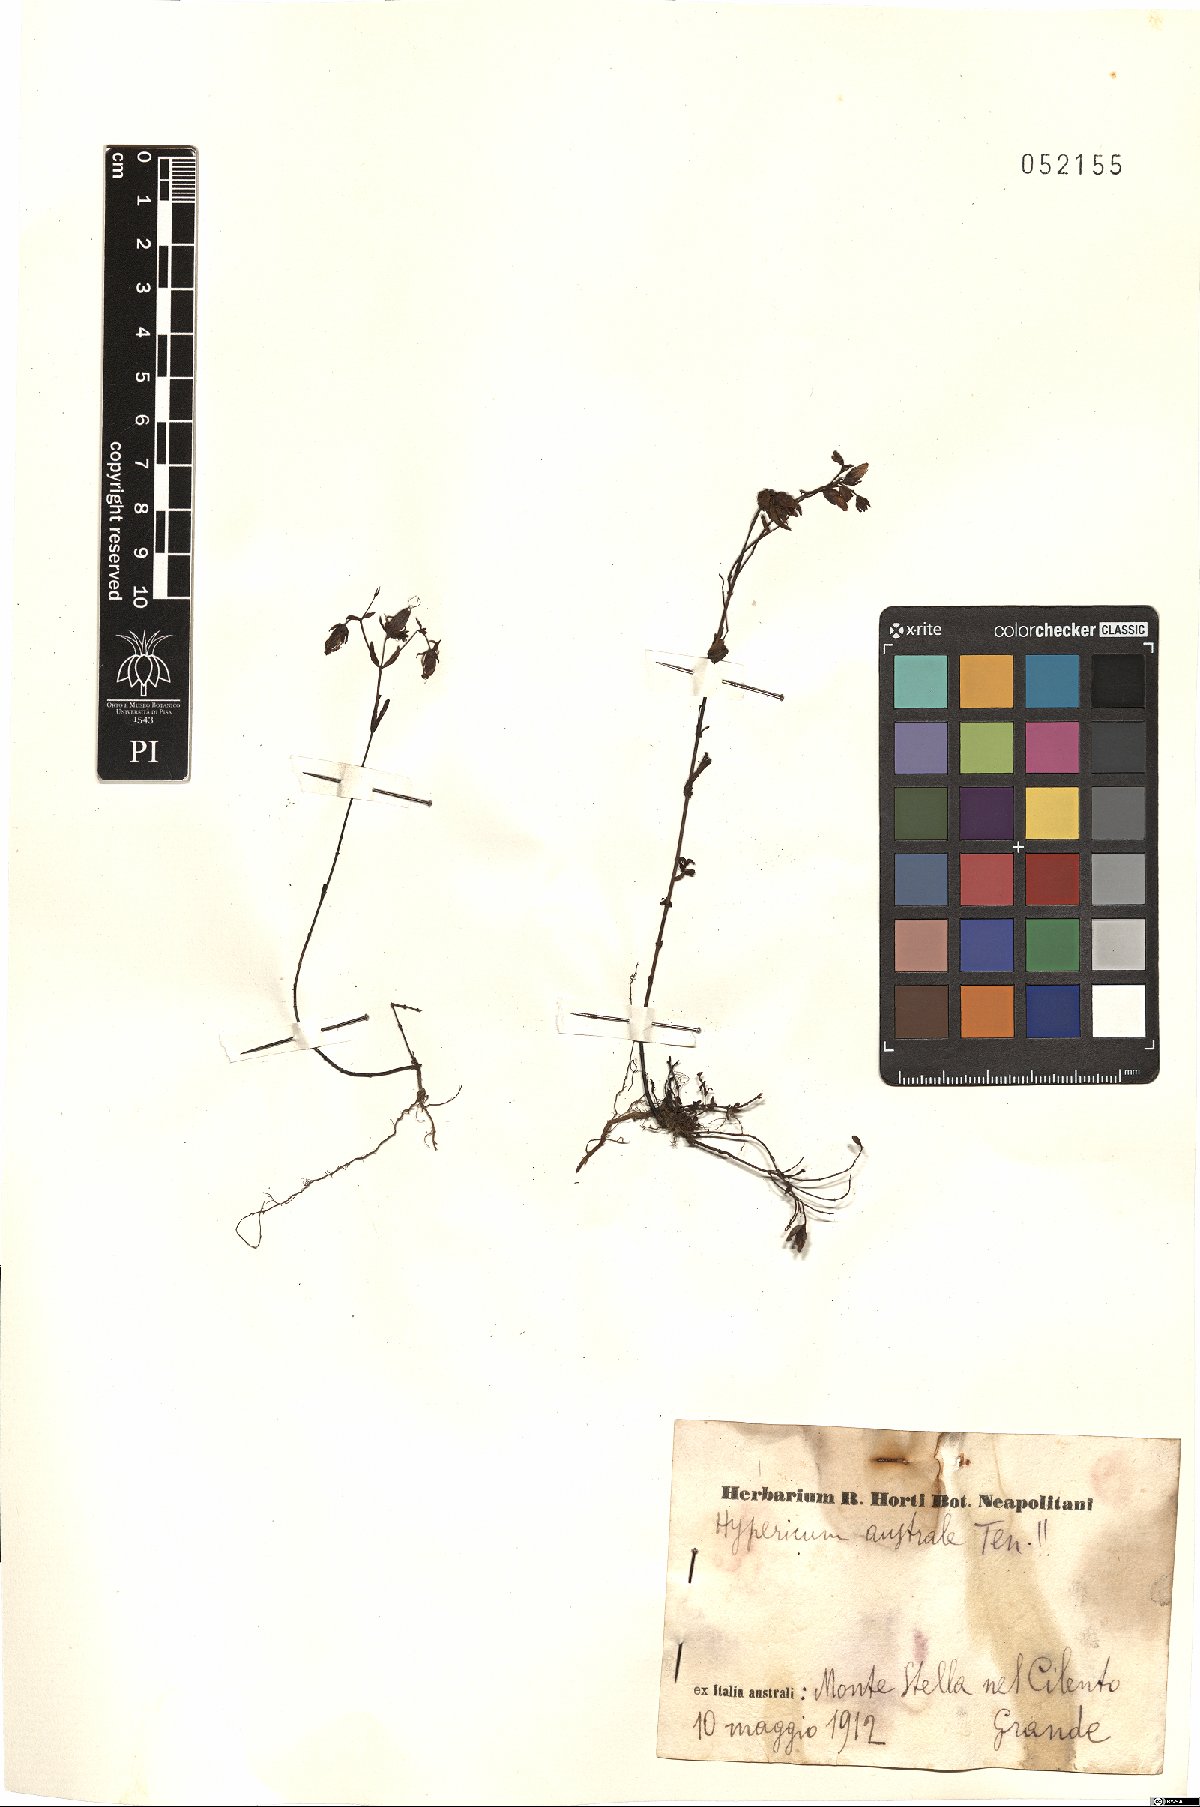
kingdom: Plantae
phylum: Tracheophyta
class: Magnoliopsida
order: Malpighiales
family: Hypericaceae
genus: Hypericum
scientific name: Hypericum australe
